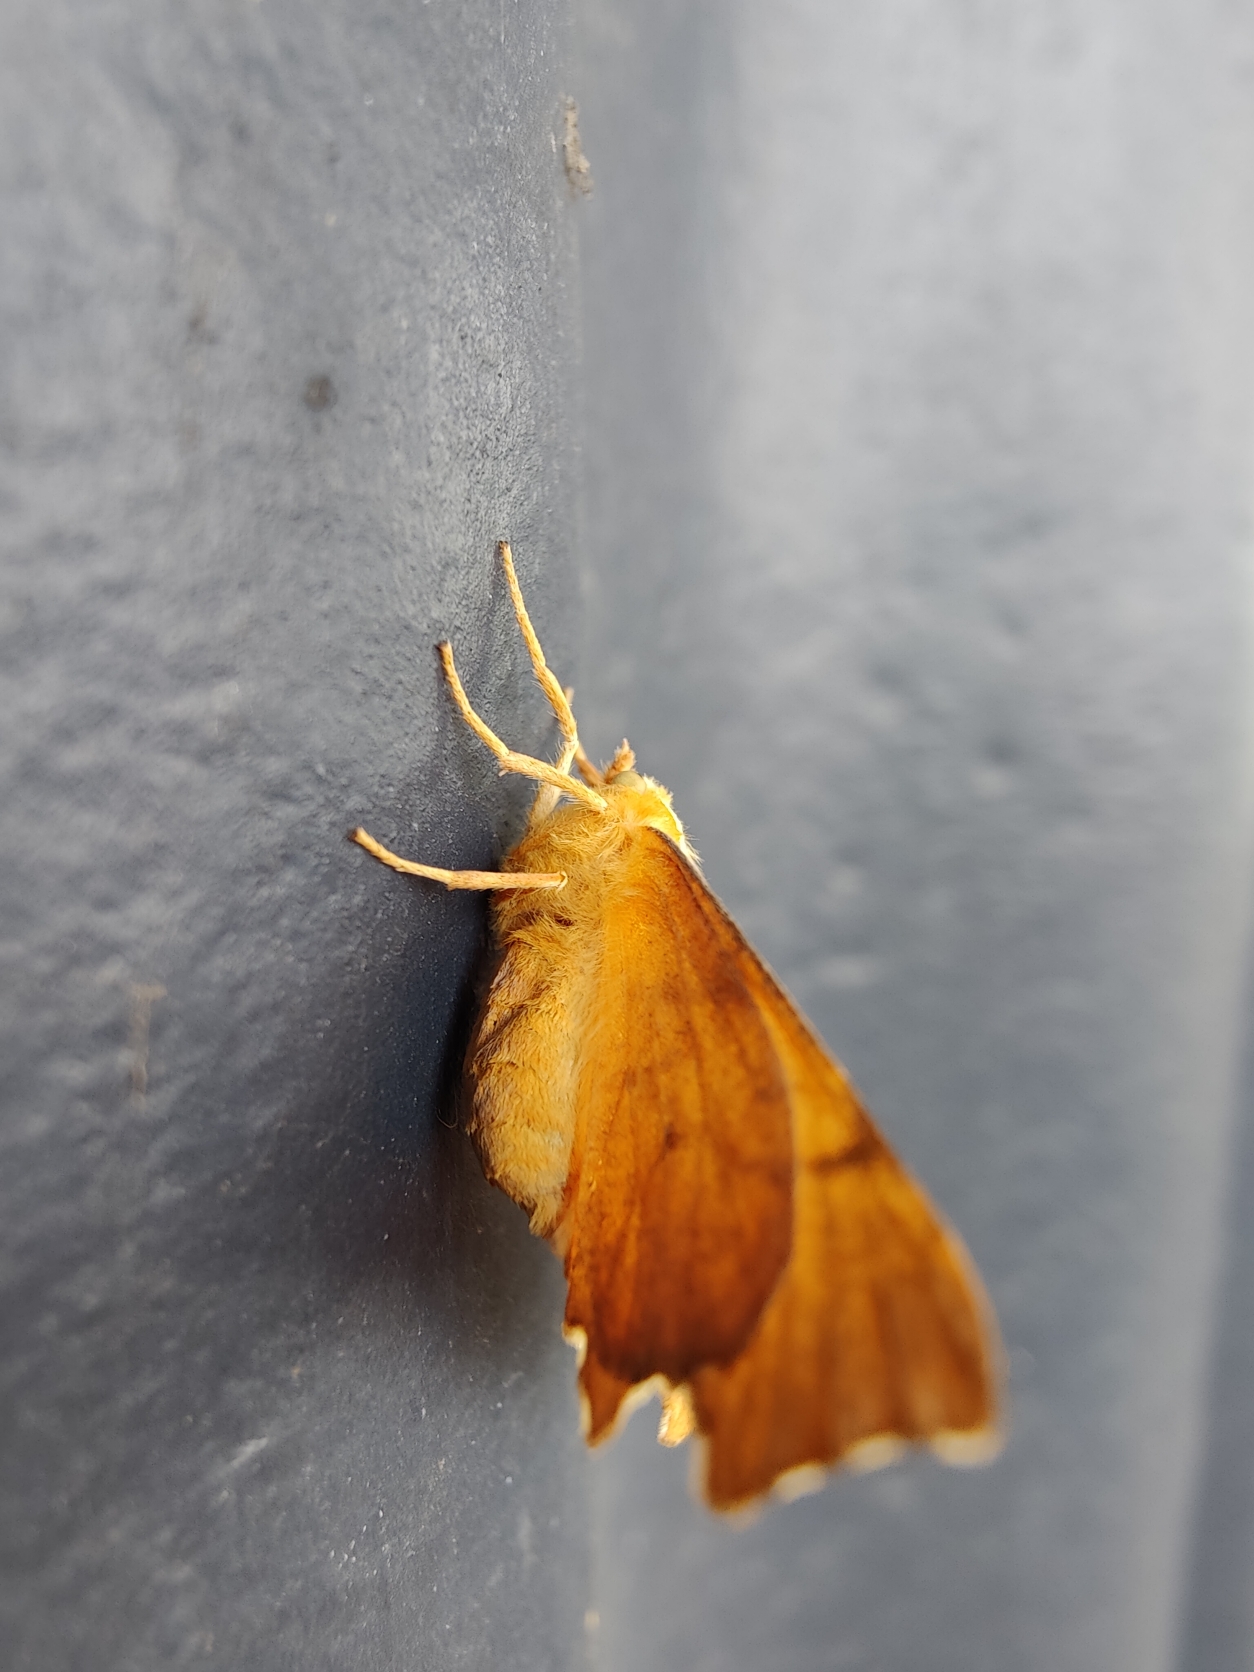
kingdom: Animalia
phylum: Arthropoda
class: Insecta
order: Lepidoptera
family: Geometridae
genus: Ennomos
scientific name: Ennomos erosaria
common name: Ege-tandmåler
